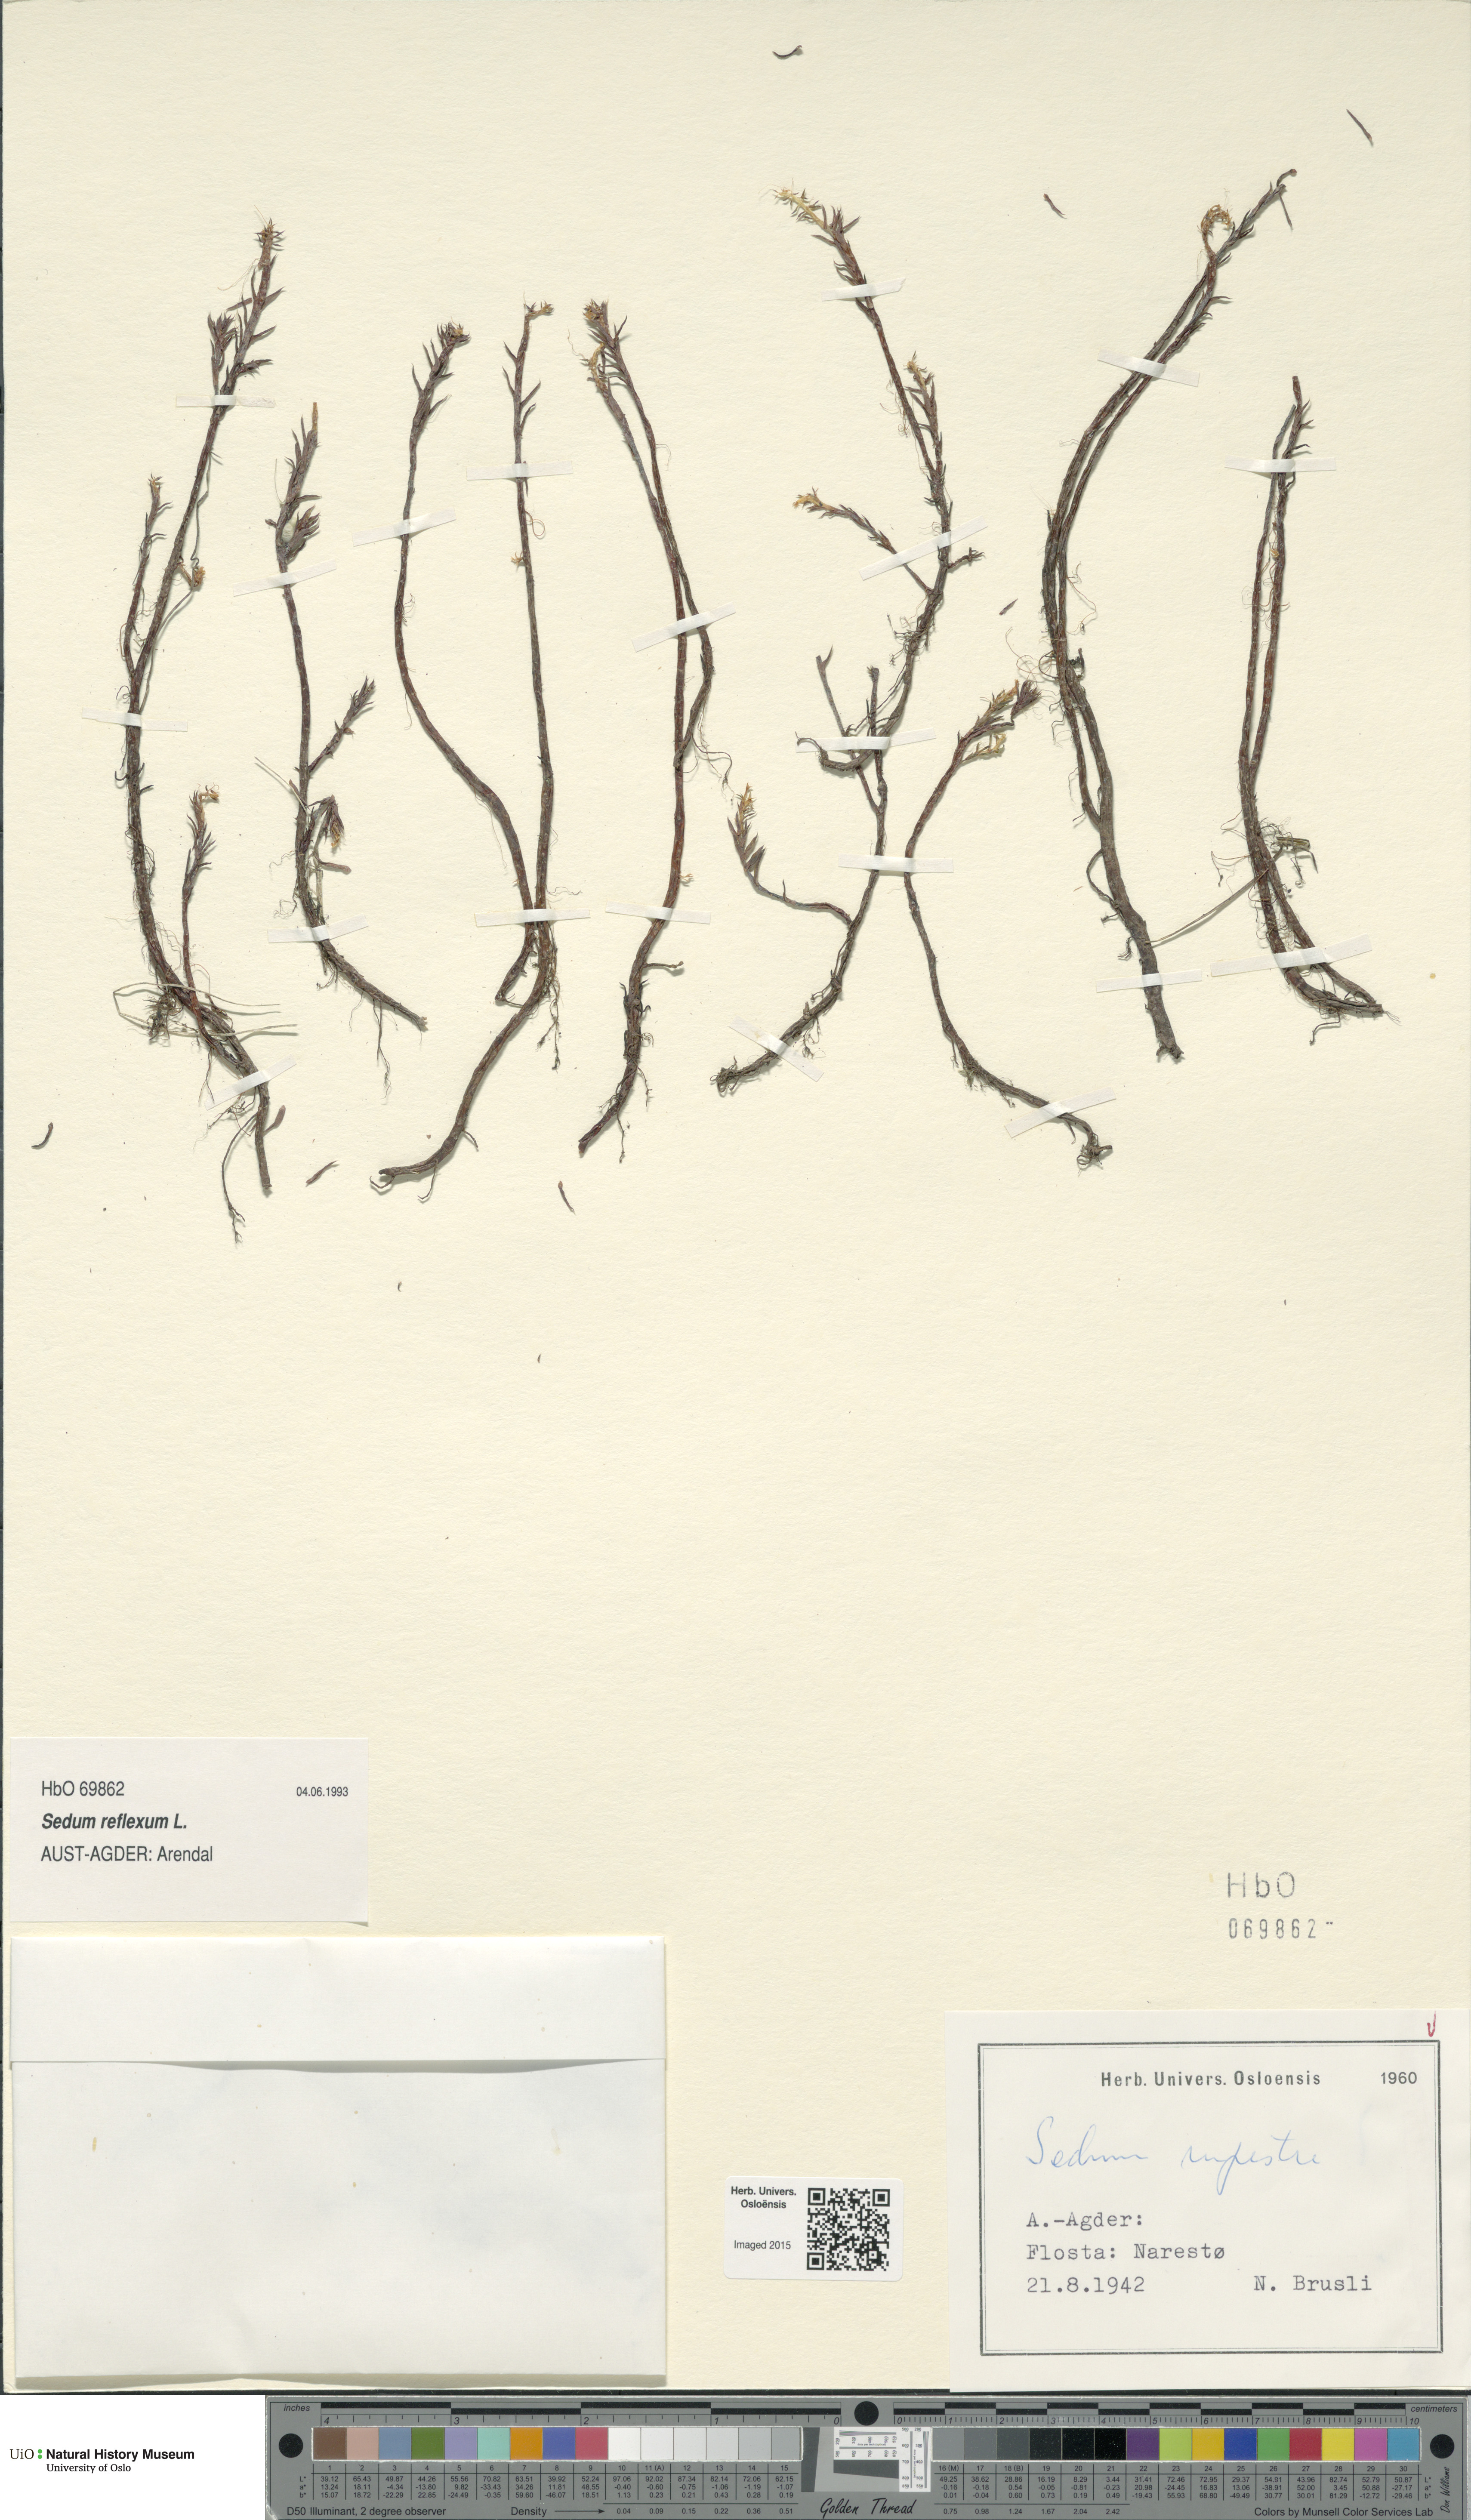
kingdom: Plantae
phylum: Tracheophyta
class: Magnoliopsida
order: Saxifragales
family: Crassulaceae
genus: Petrosedum
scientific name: Petrosedum rupestre
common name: Jenny's stonecrop
